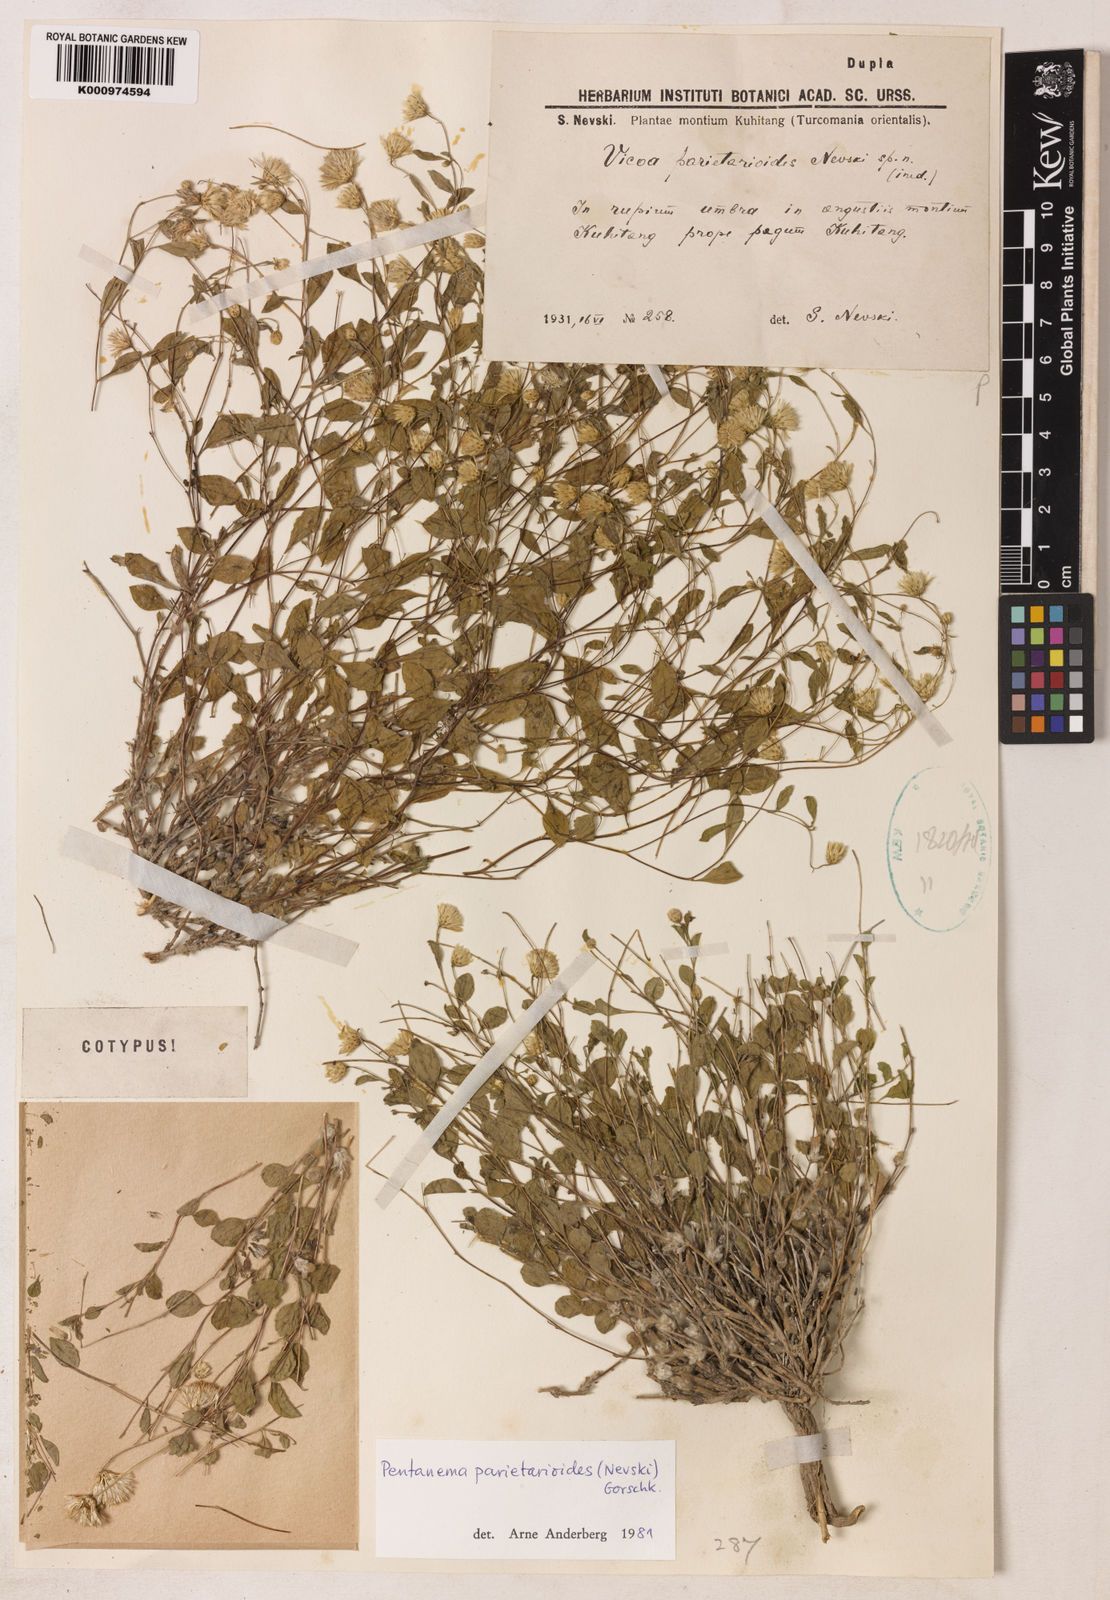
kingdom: Plantae
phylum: Tracheophyta
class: Magnoliopsida
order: Asterales
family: Asteraceae
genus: Vicoa
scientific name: Vicoa parietarioides
